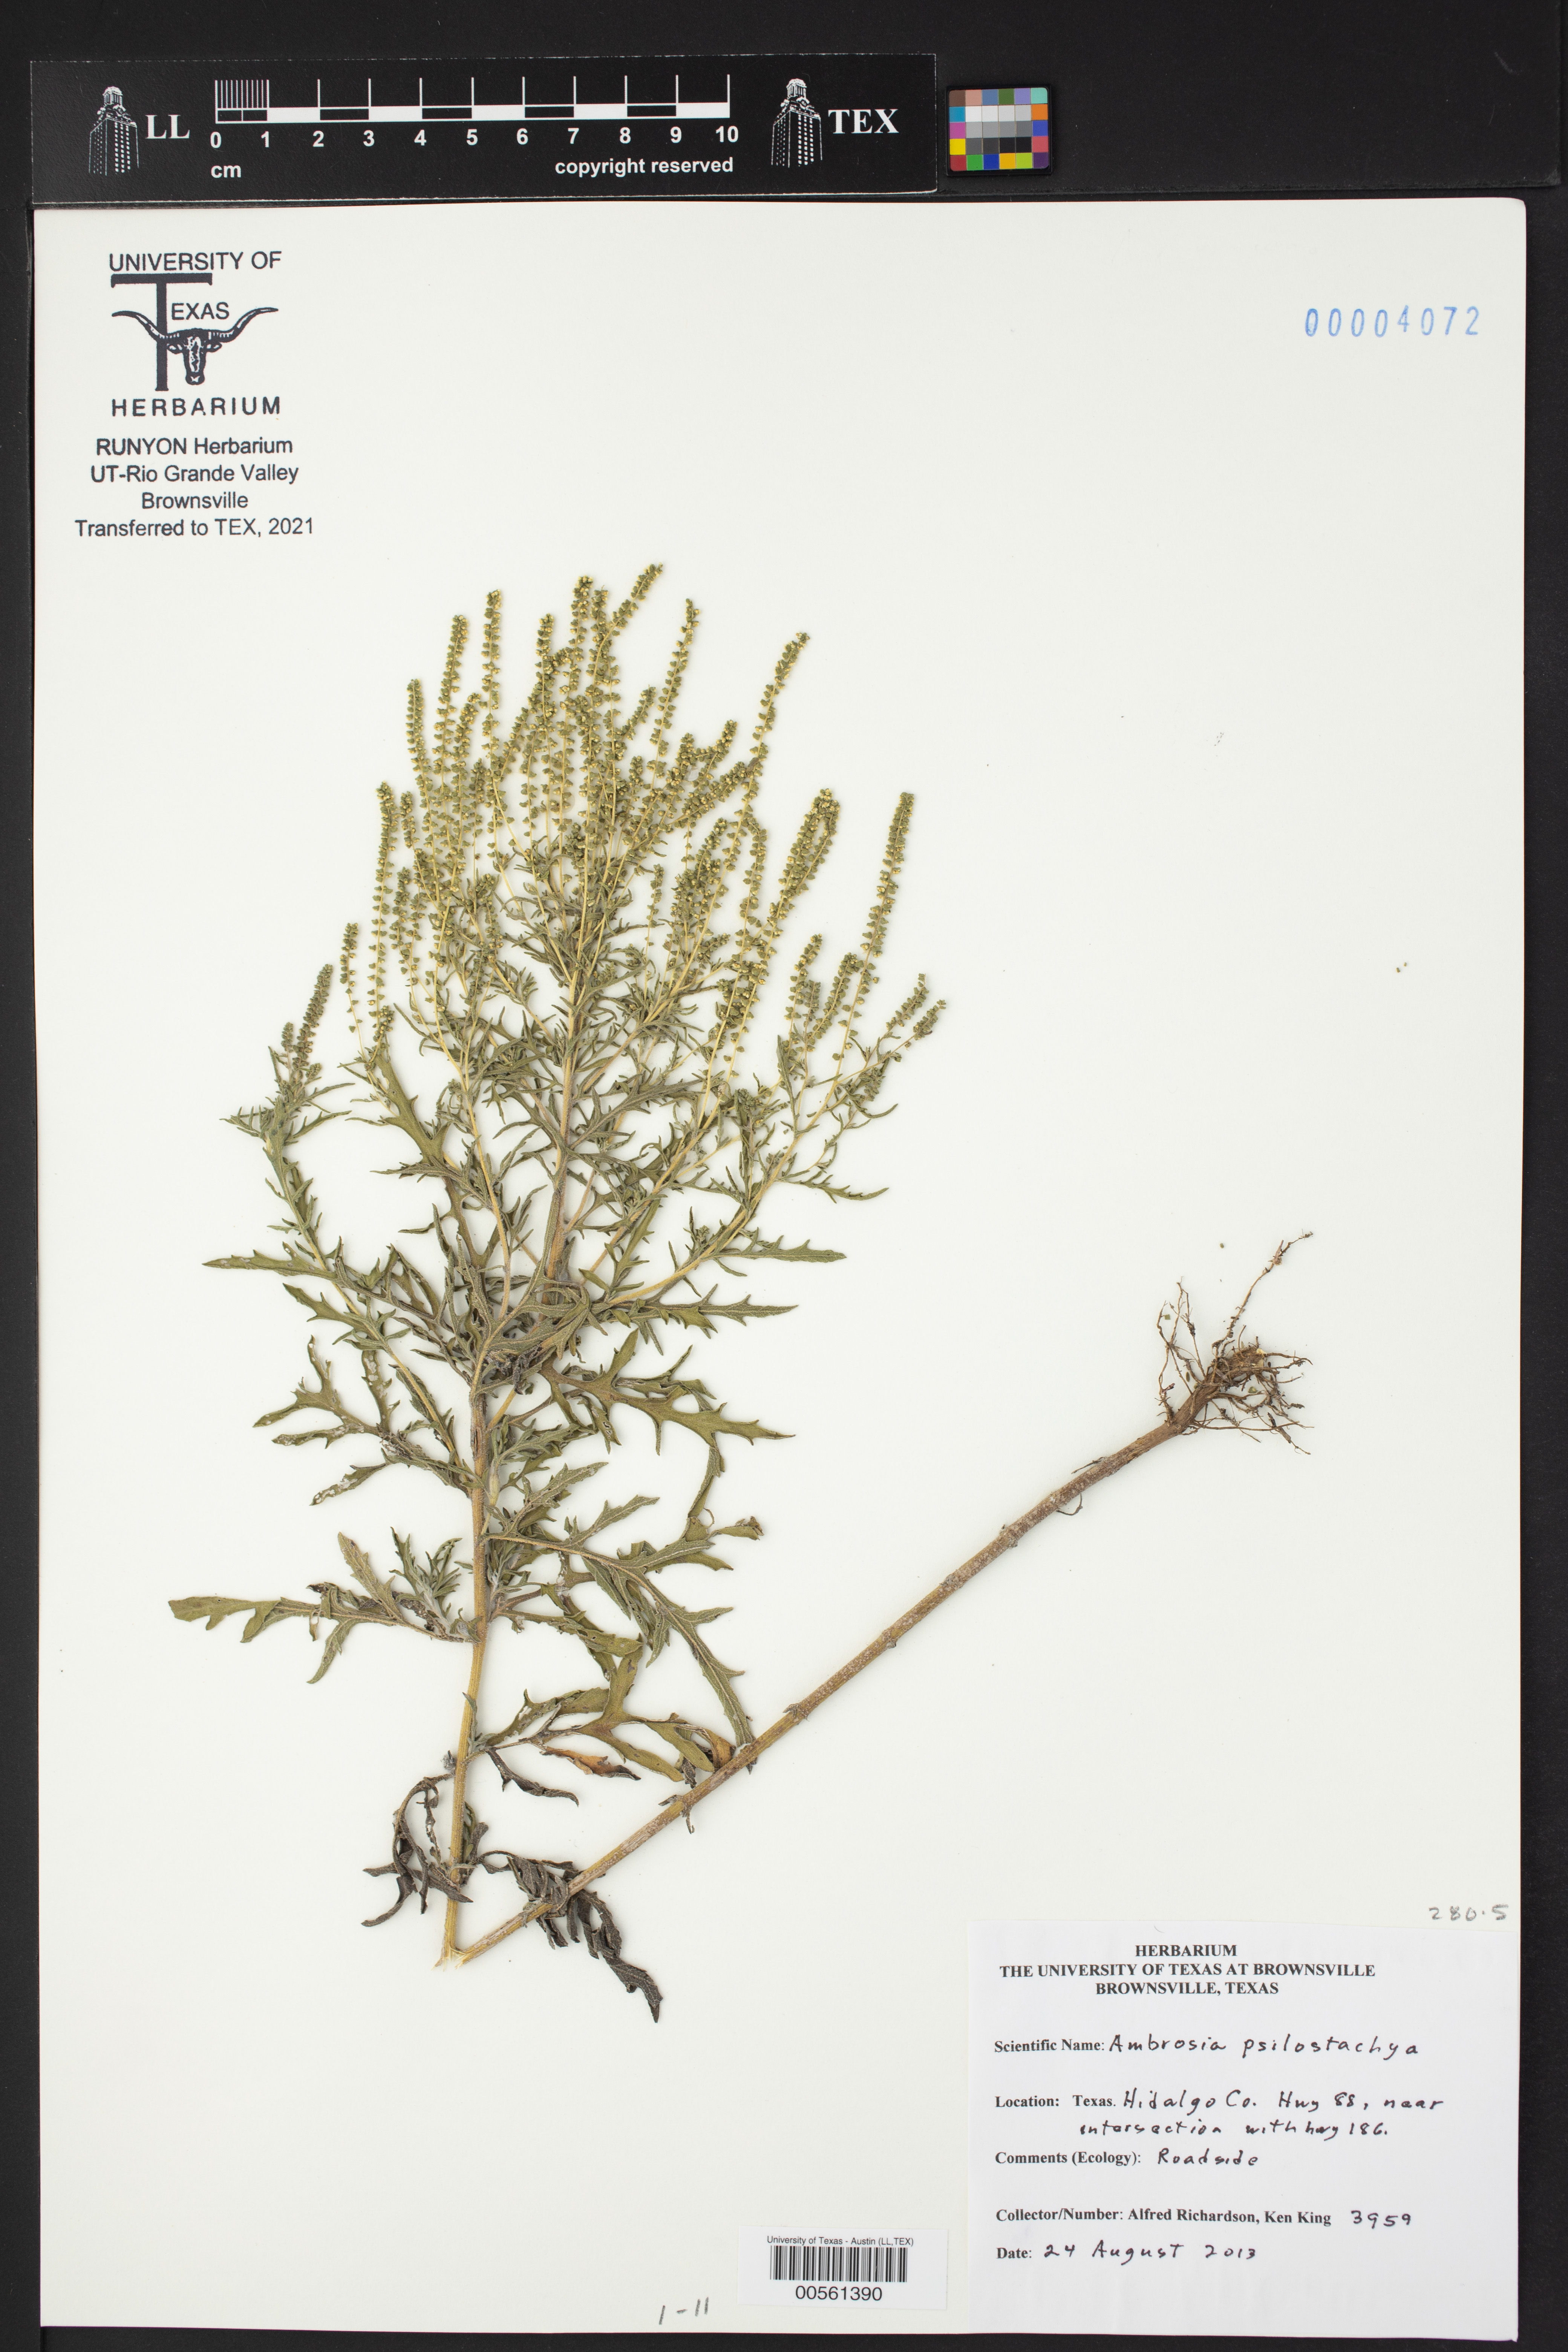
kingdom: Plantae
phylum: Tracheophyta
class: Magnoliopsida
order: Asterales
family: Asteraceae
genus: Ambrosia
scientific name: Ambrosia psilostachya
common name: Perennial ragweed
